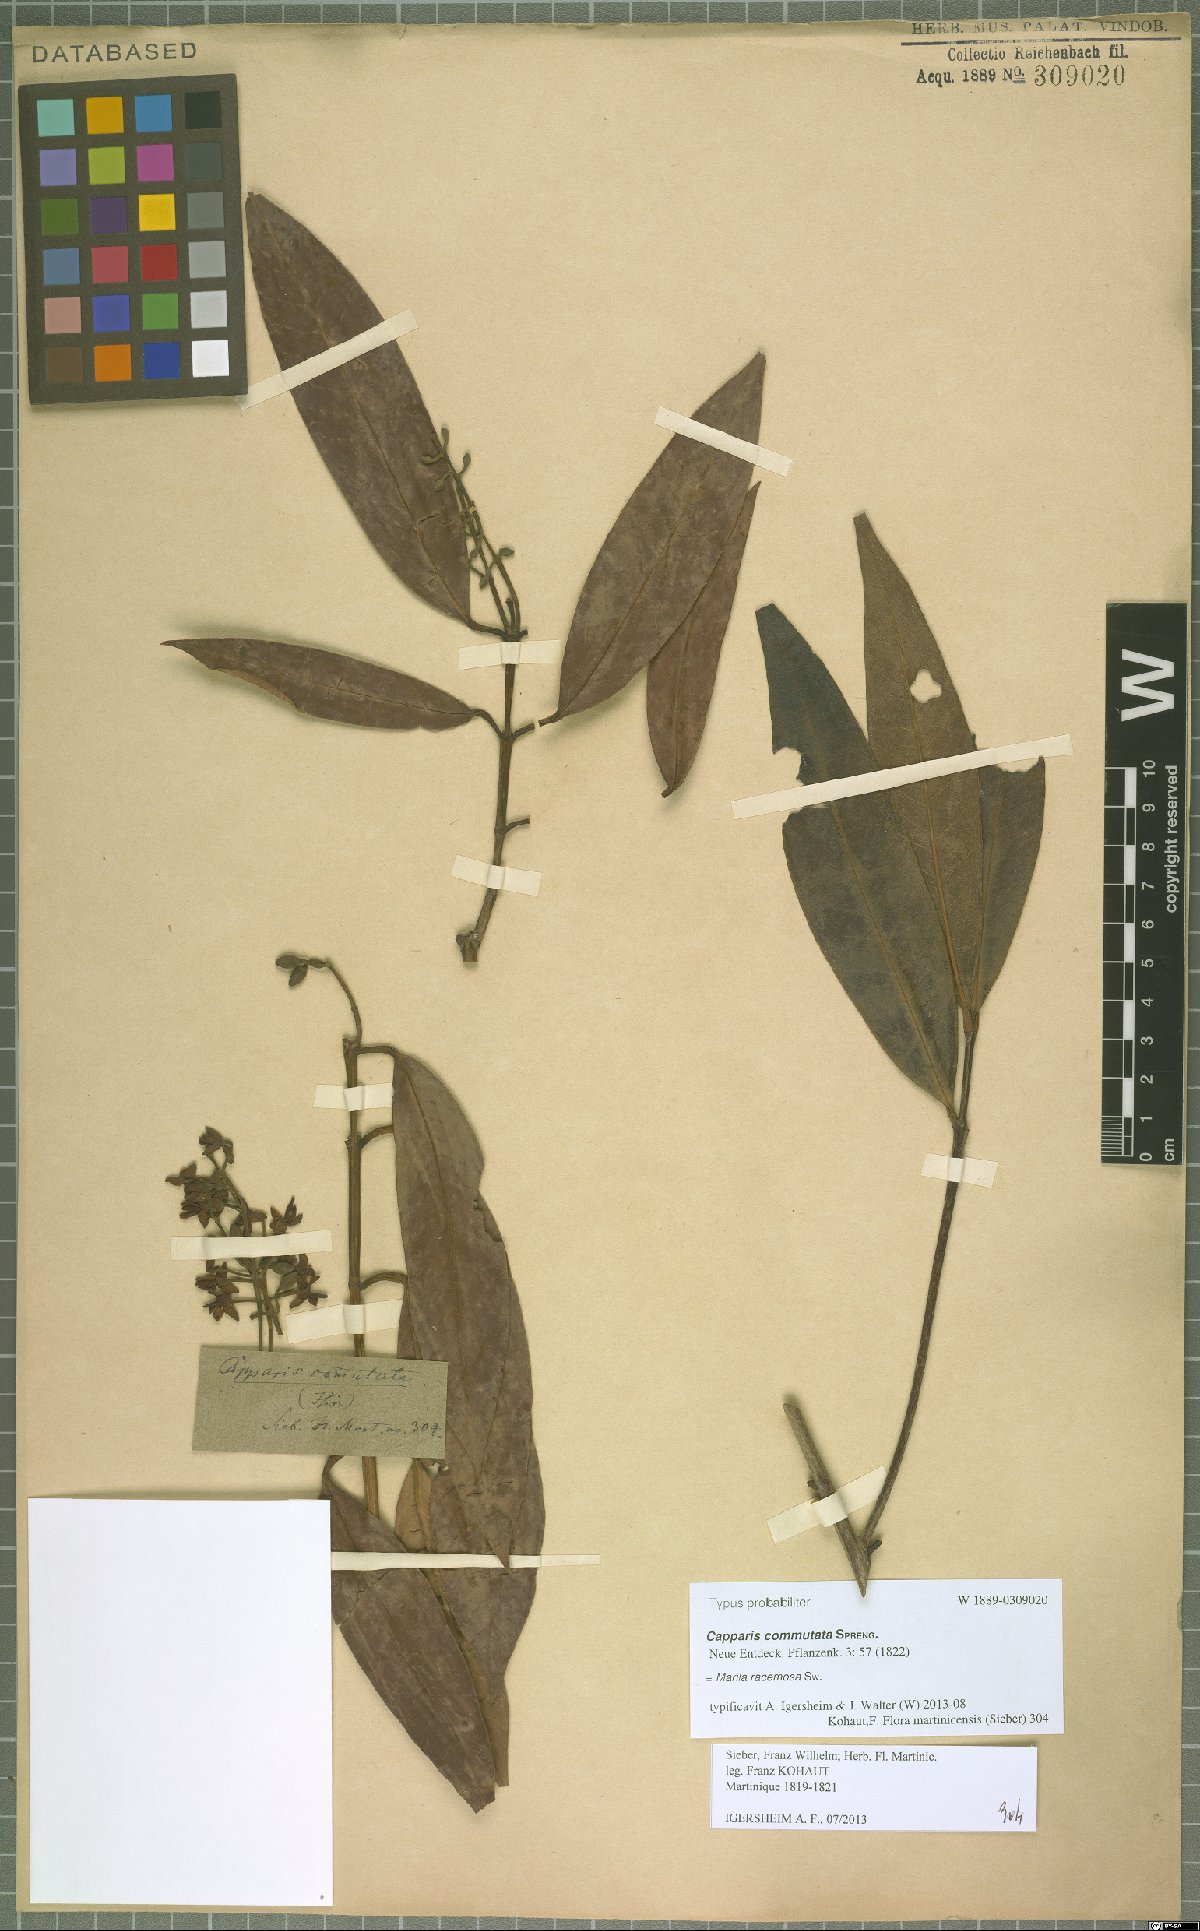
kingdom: Plantae
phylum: Tracheophyta
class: Magnoliopsida
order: Malpighiales
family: Calophyllaceae
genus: Marila
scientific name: Marila racemosa
